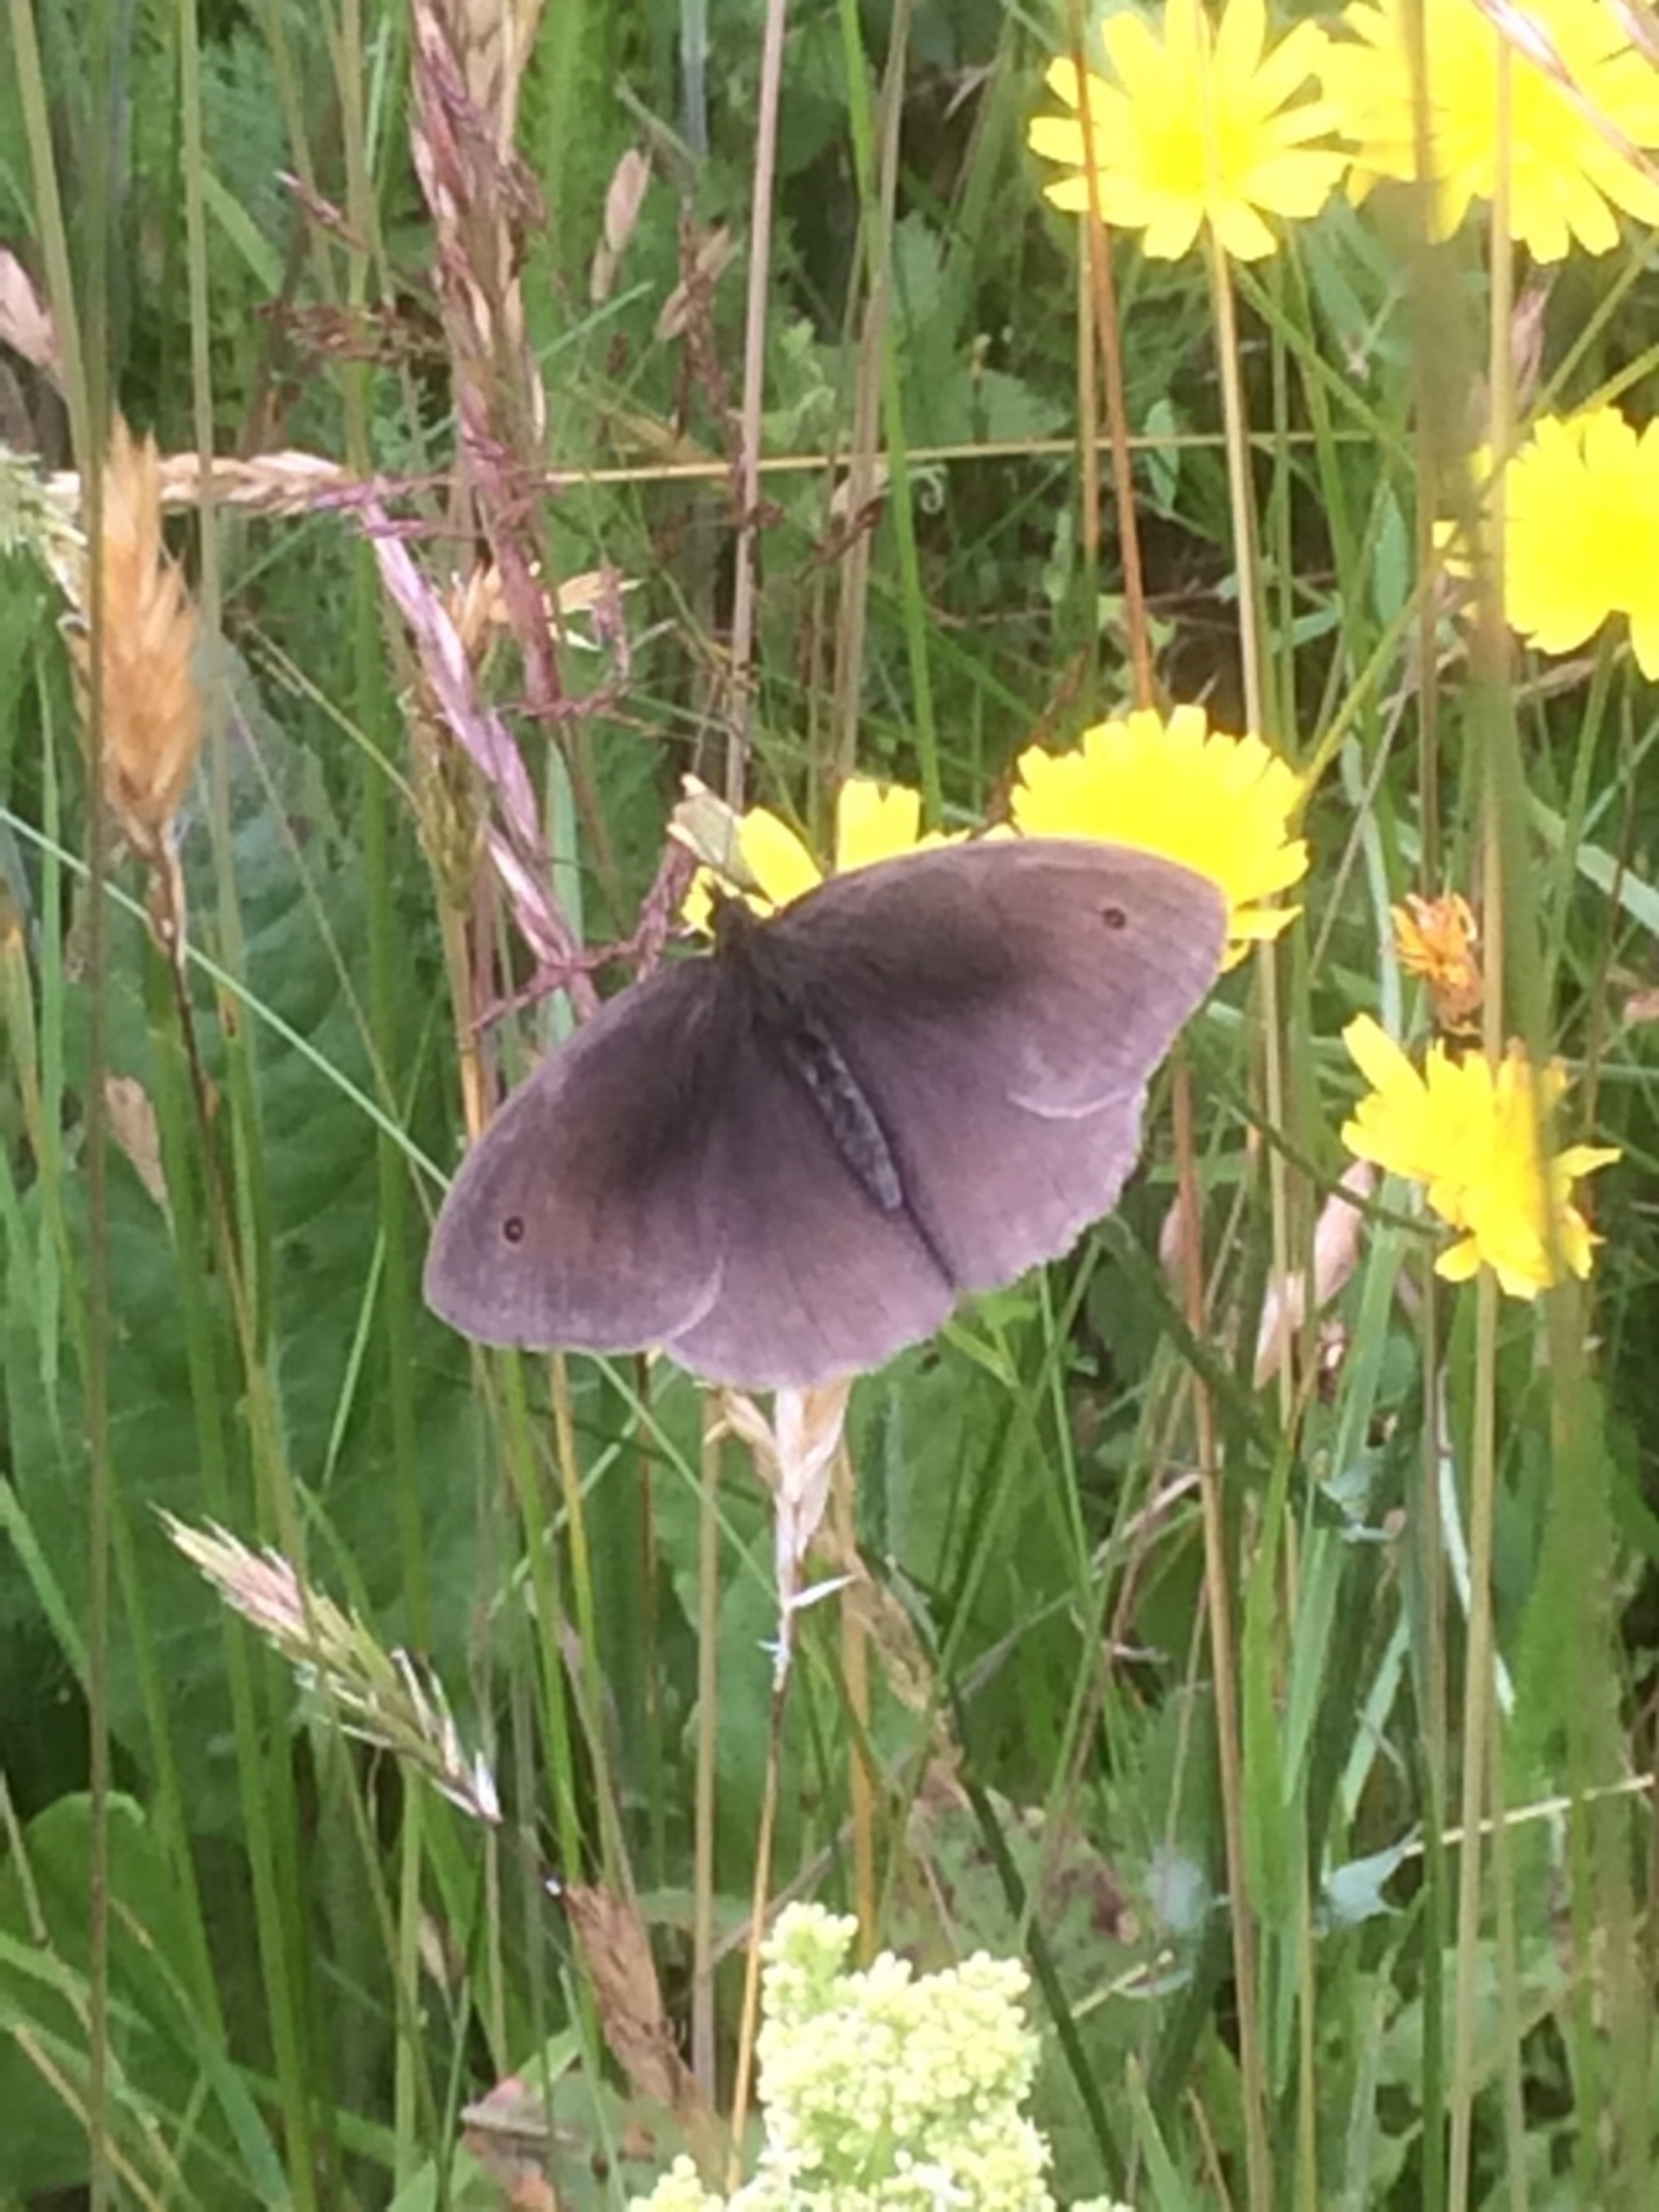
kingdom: Animalia
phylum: Arthropoda
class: Insecta
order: Lepidoptera
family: Nymphalidae
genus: Maniola
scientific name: Maniola jurtina
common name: Græsrandøje
